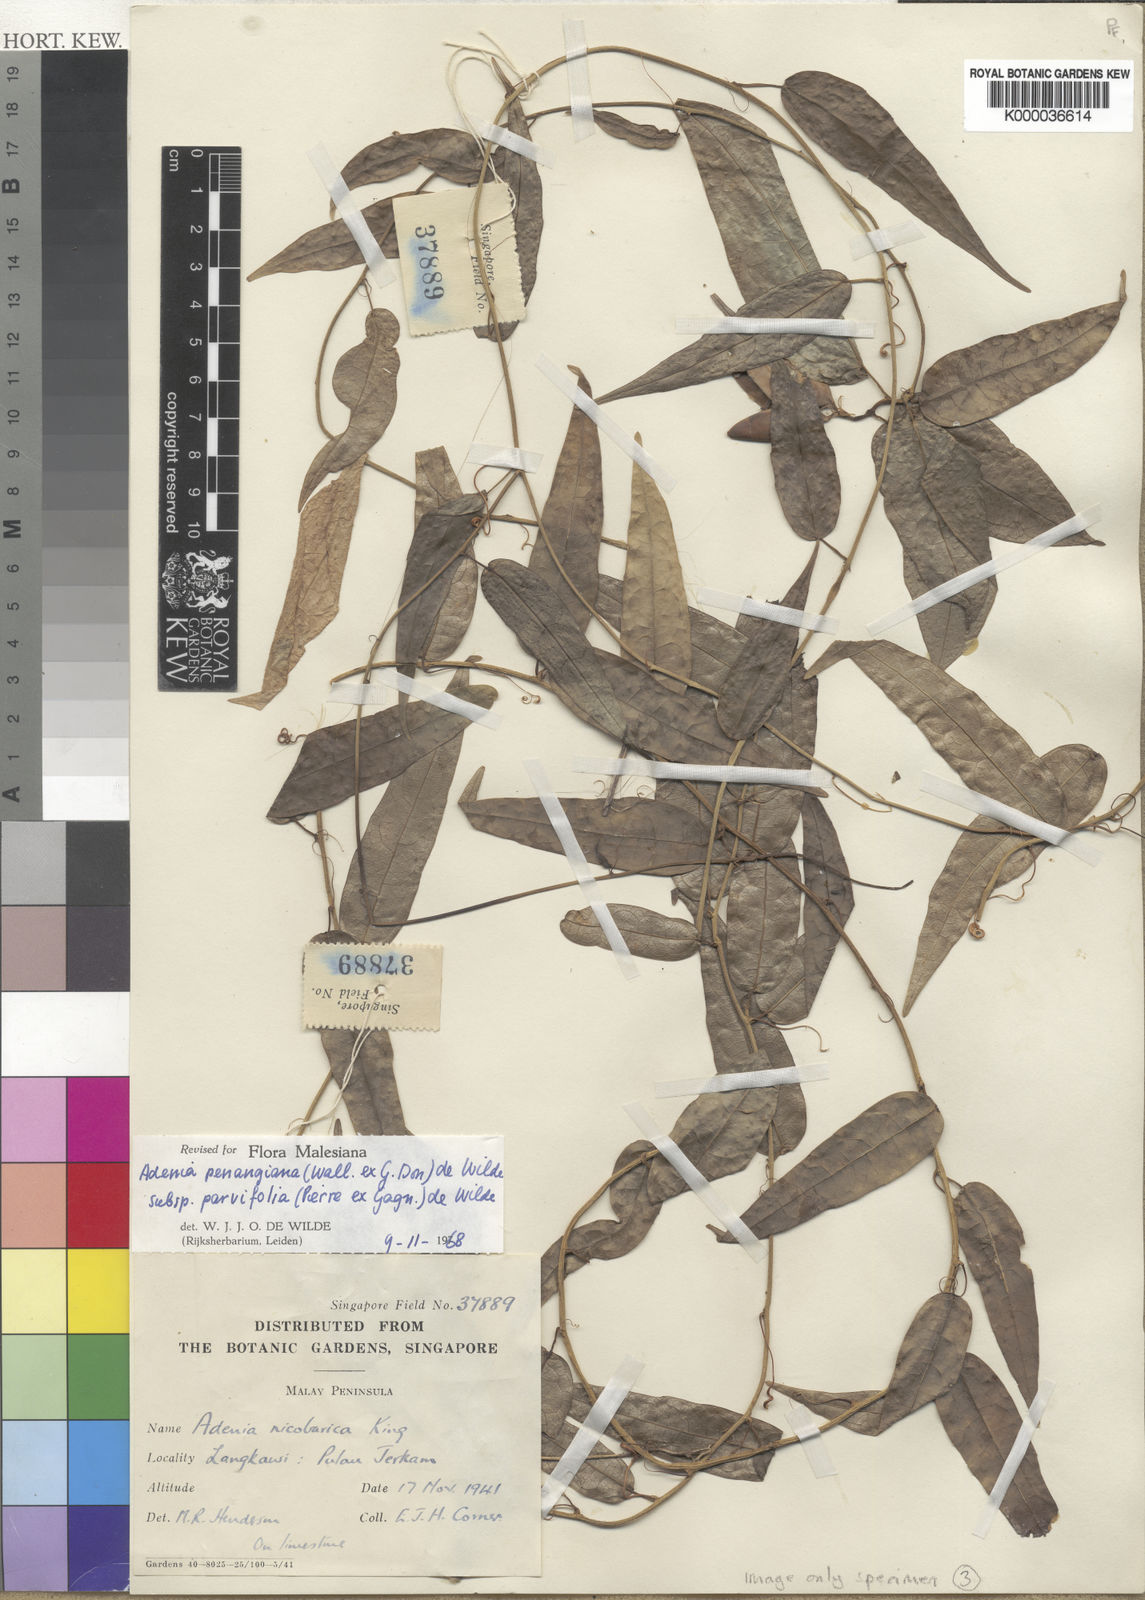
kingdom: Plantae
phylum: Tracheophyta
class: Magnoliopsida
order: Malpighiales
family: Passifloraceae
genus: Adenia
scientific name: Adenia penangiana
